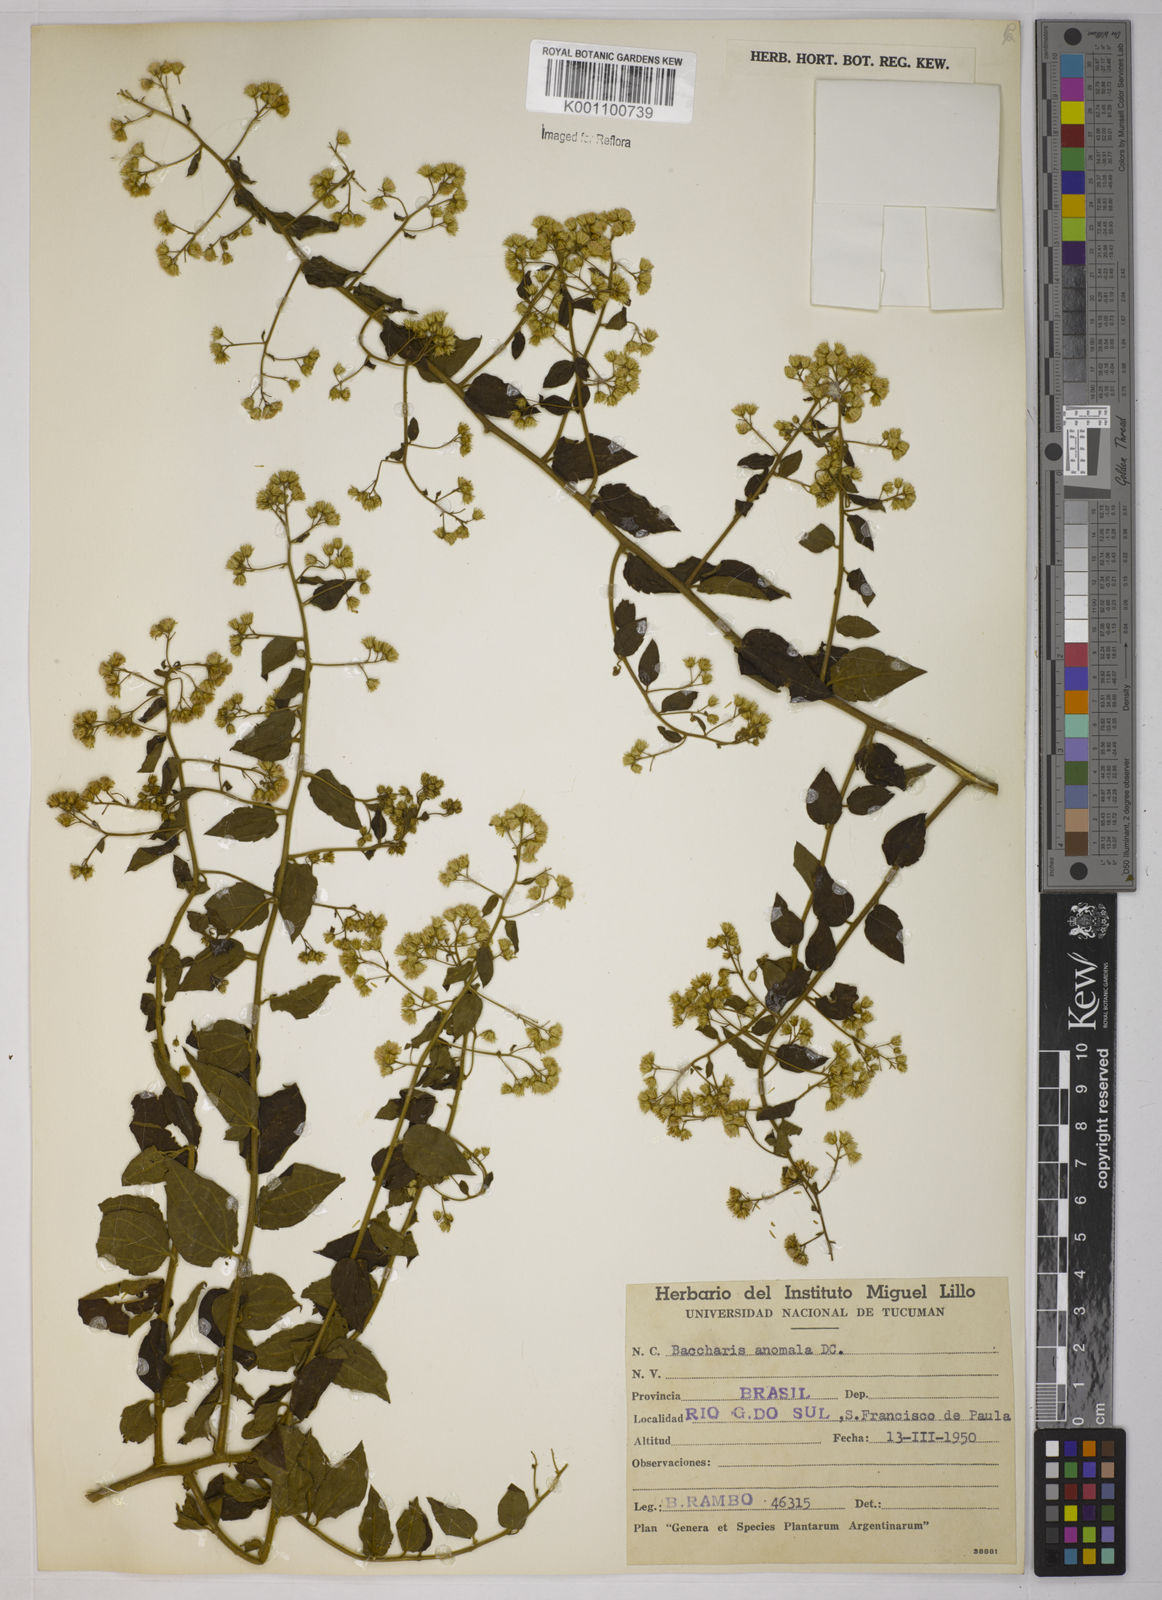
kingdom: Plantae
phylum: Tracheophyta
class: Magnoliopsida
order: Asterales
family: Asteraceae
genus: Baccharis
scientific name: Baccharis anomala
